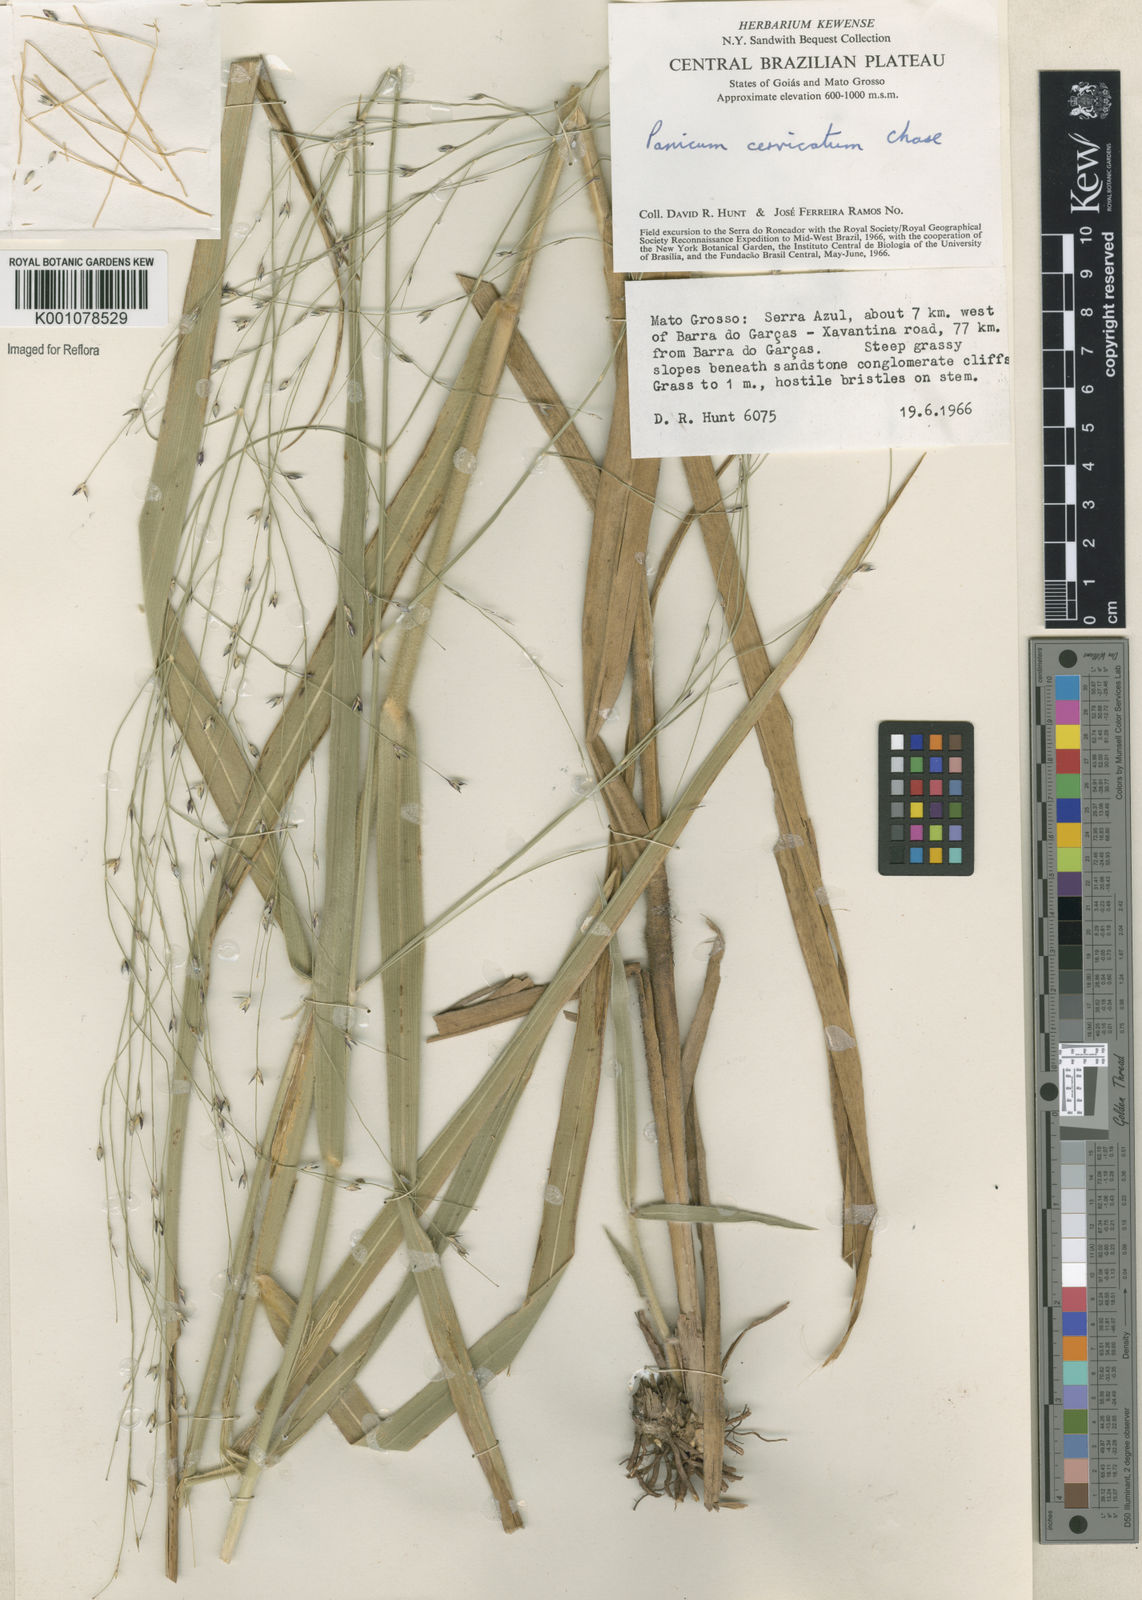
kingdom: Plantae
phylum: Tracheophyta
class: Liliopsida
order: Poales
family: Poaceae
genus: Panicum
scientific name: Panicum ligulare
